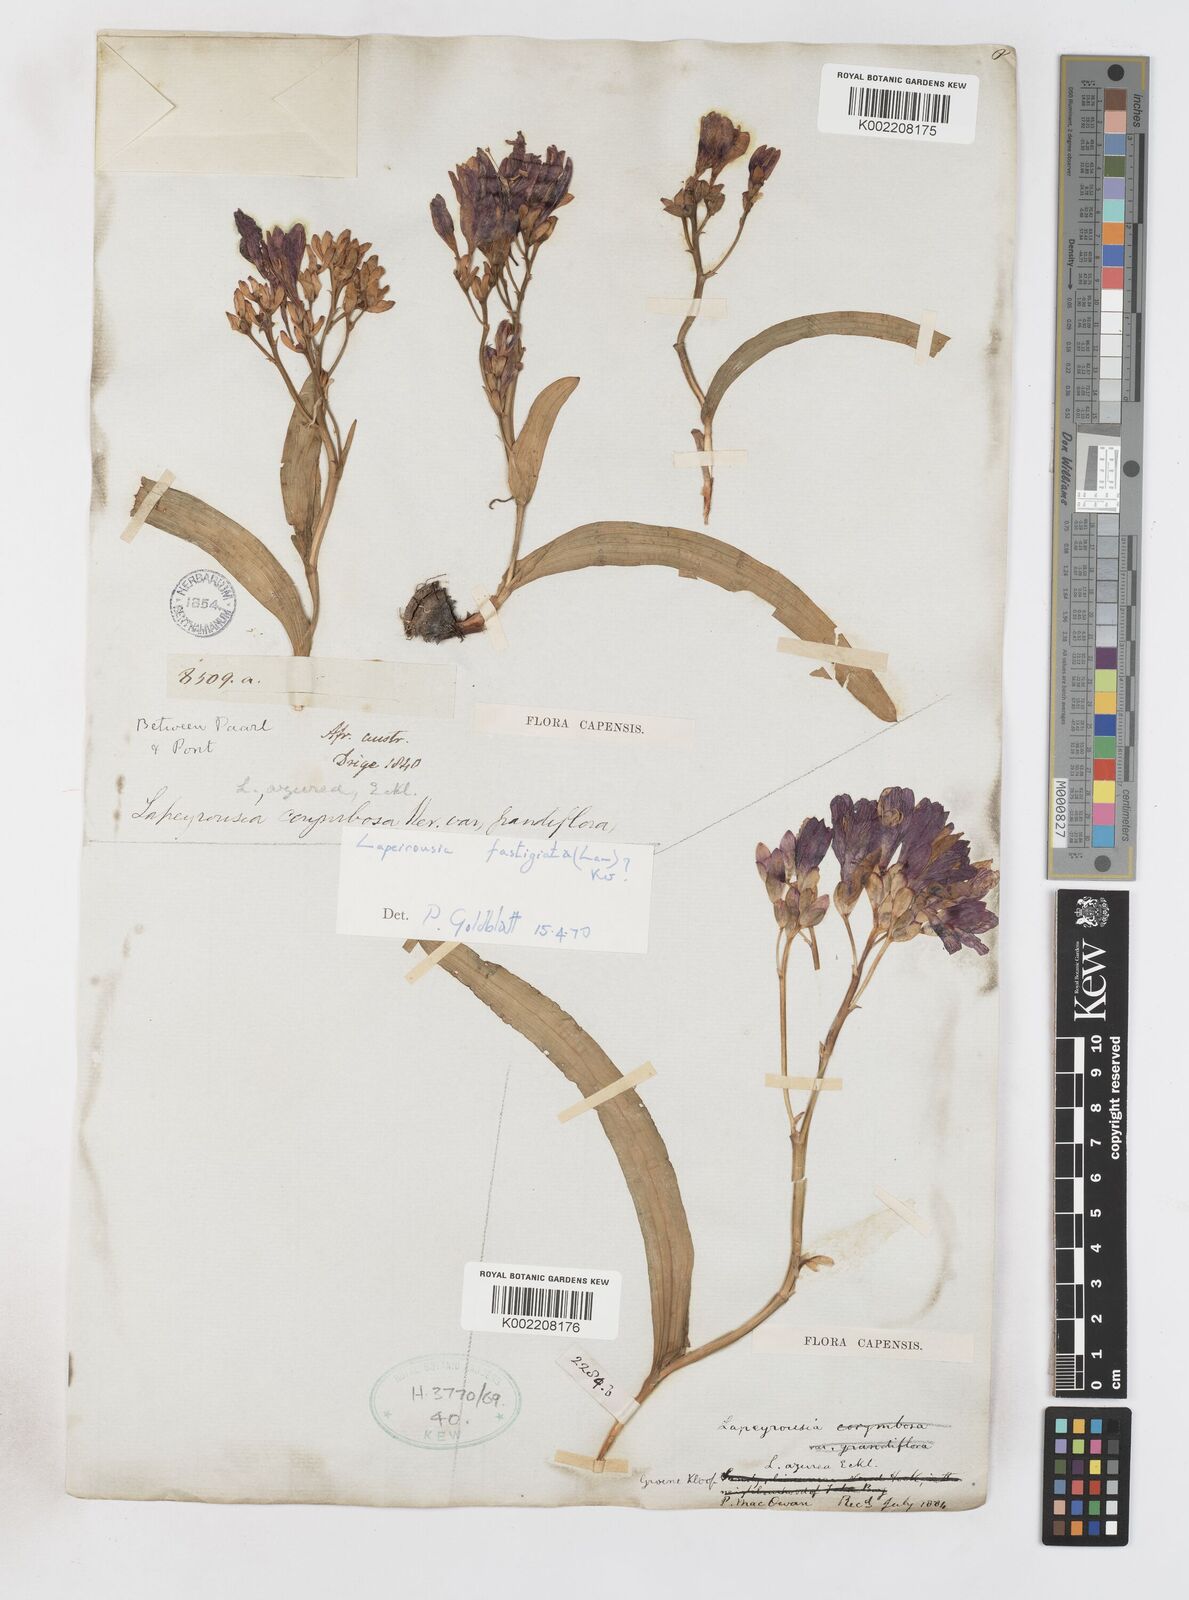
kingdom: Plantae
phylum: Tracheophyta
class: Liliopsida
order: Asparagales
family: Iridaceae
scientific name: Iridaceae
